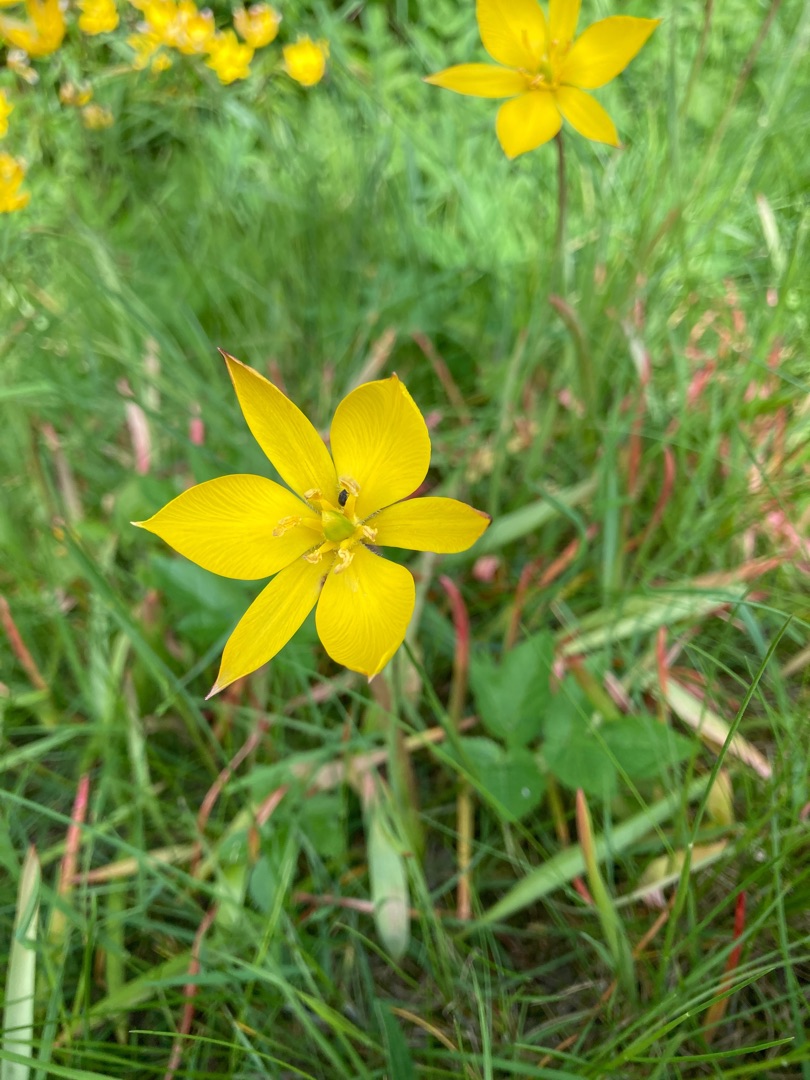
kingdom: Plantae
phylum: Tracheophyta
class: Liliopsida
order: Liliales
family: Liliaceae
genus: Tulipa
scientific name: Tulipa sylvestris
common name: Vild tulipan
